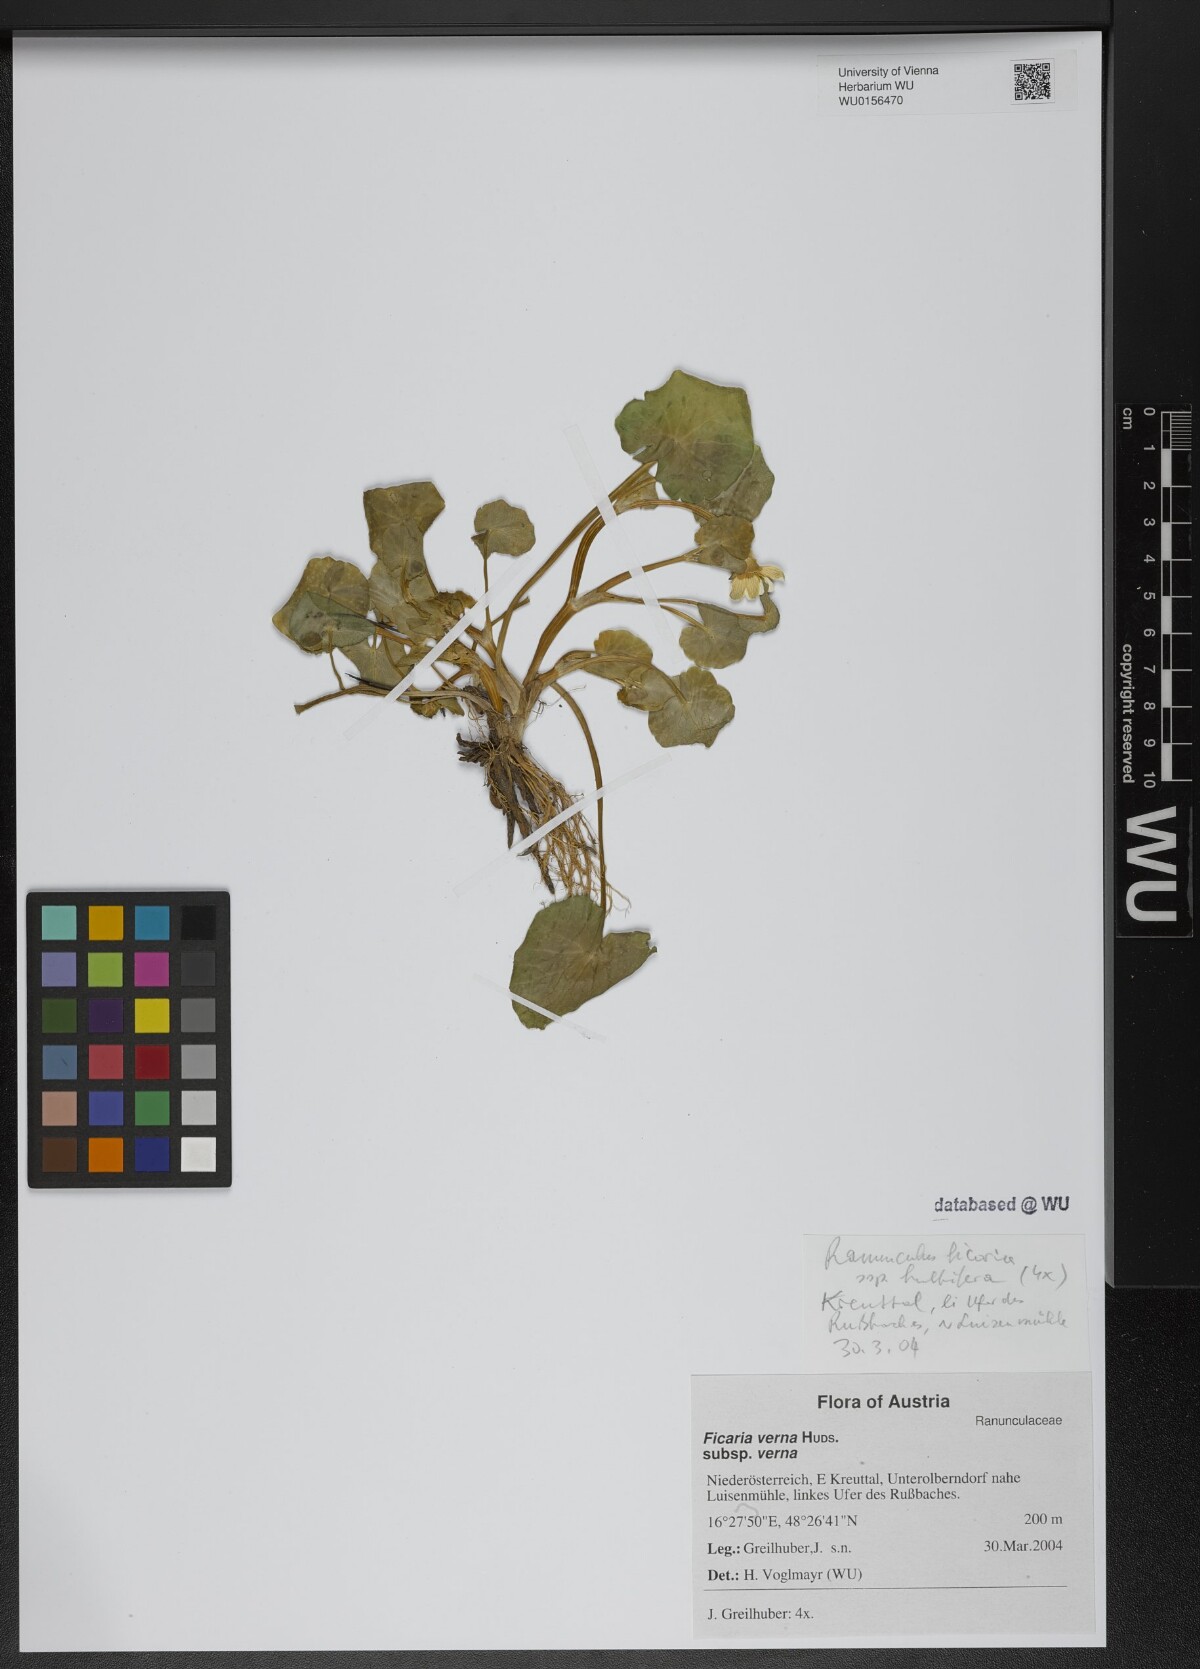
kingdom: Plantae
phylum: Tracheophyta
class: Magnoliopsida
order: Ranunculales
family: Ranunculaceae
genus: Ficaria
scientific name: Ficaria verna
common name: Lesser celandine
